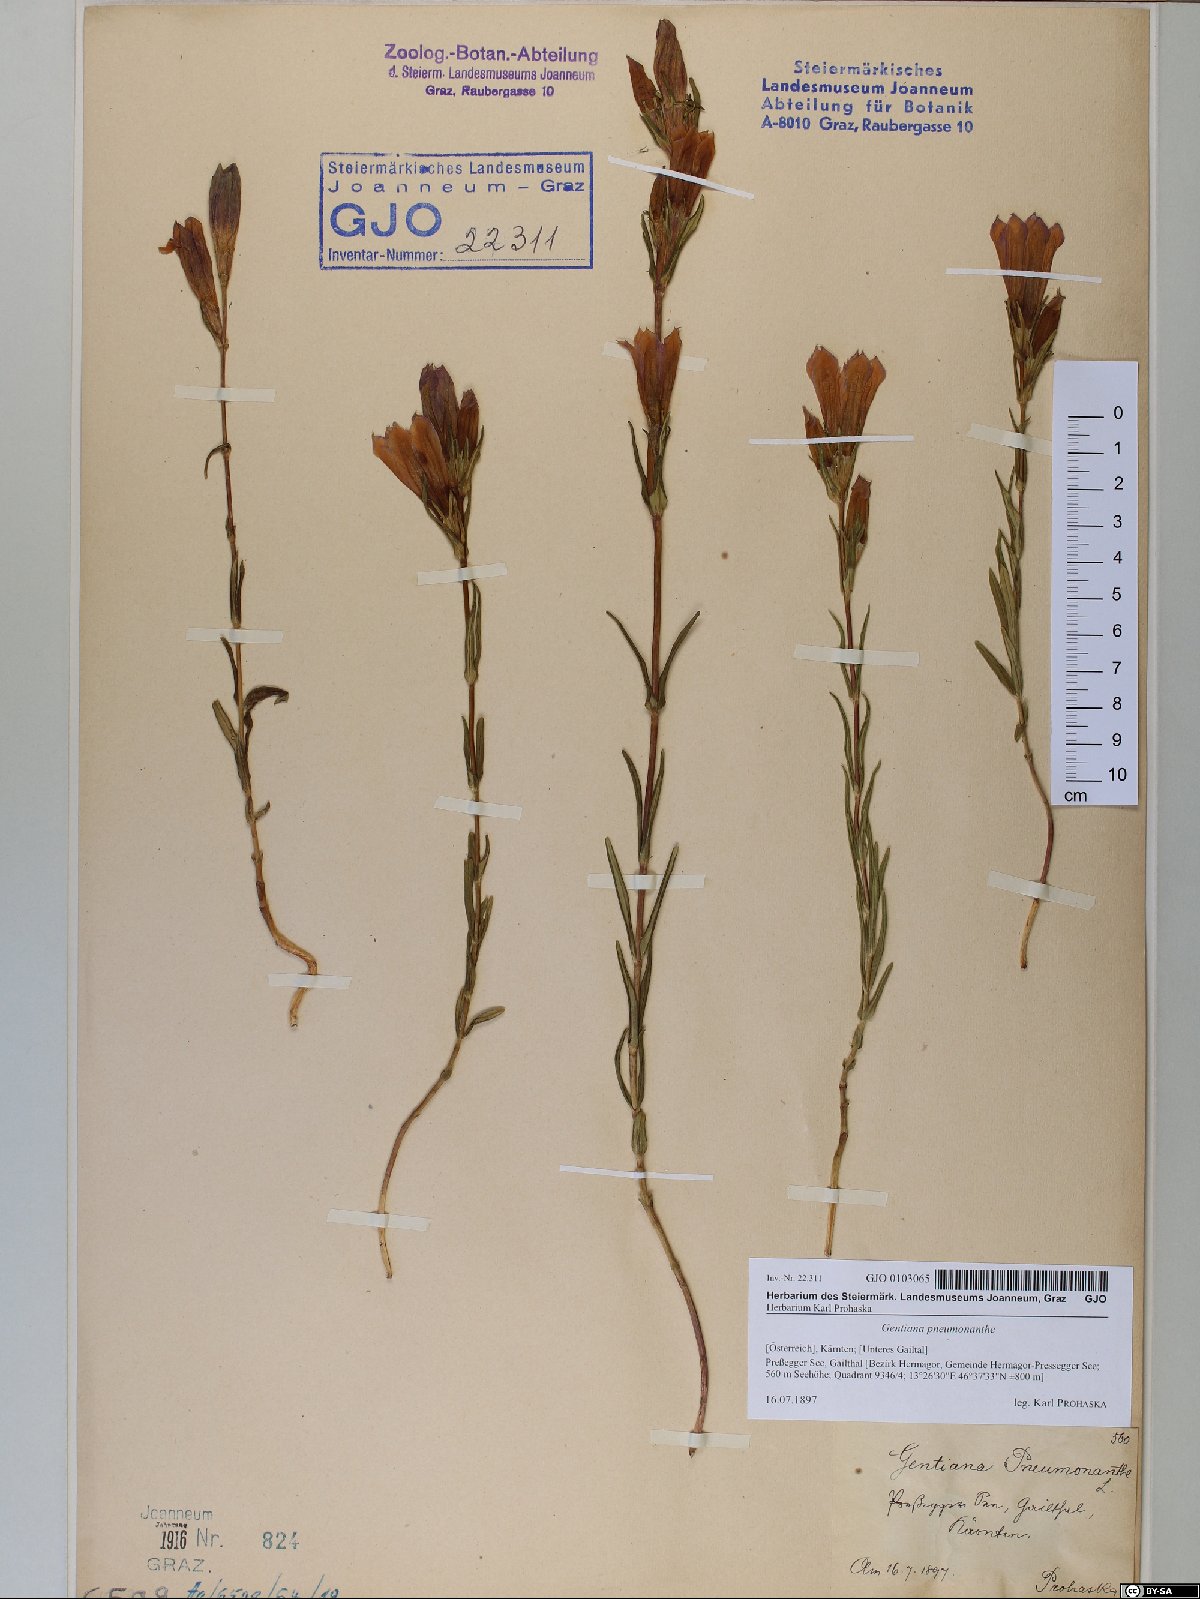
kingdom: Plantae
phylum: Tracheophyta
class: Magnoliopsida
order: Gentianales
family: Gentianaceae
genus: Gentiana
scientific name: Gentiana pneumonanthe
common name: Marsh gentian
